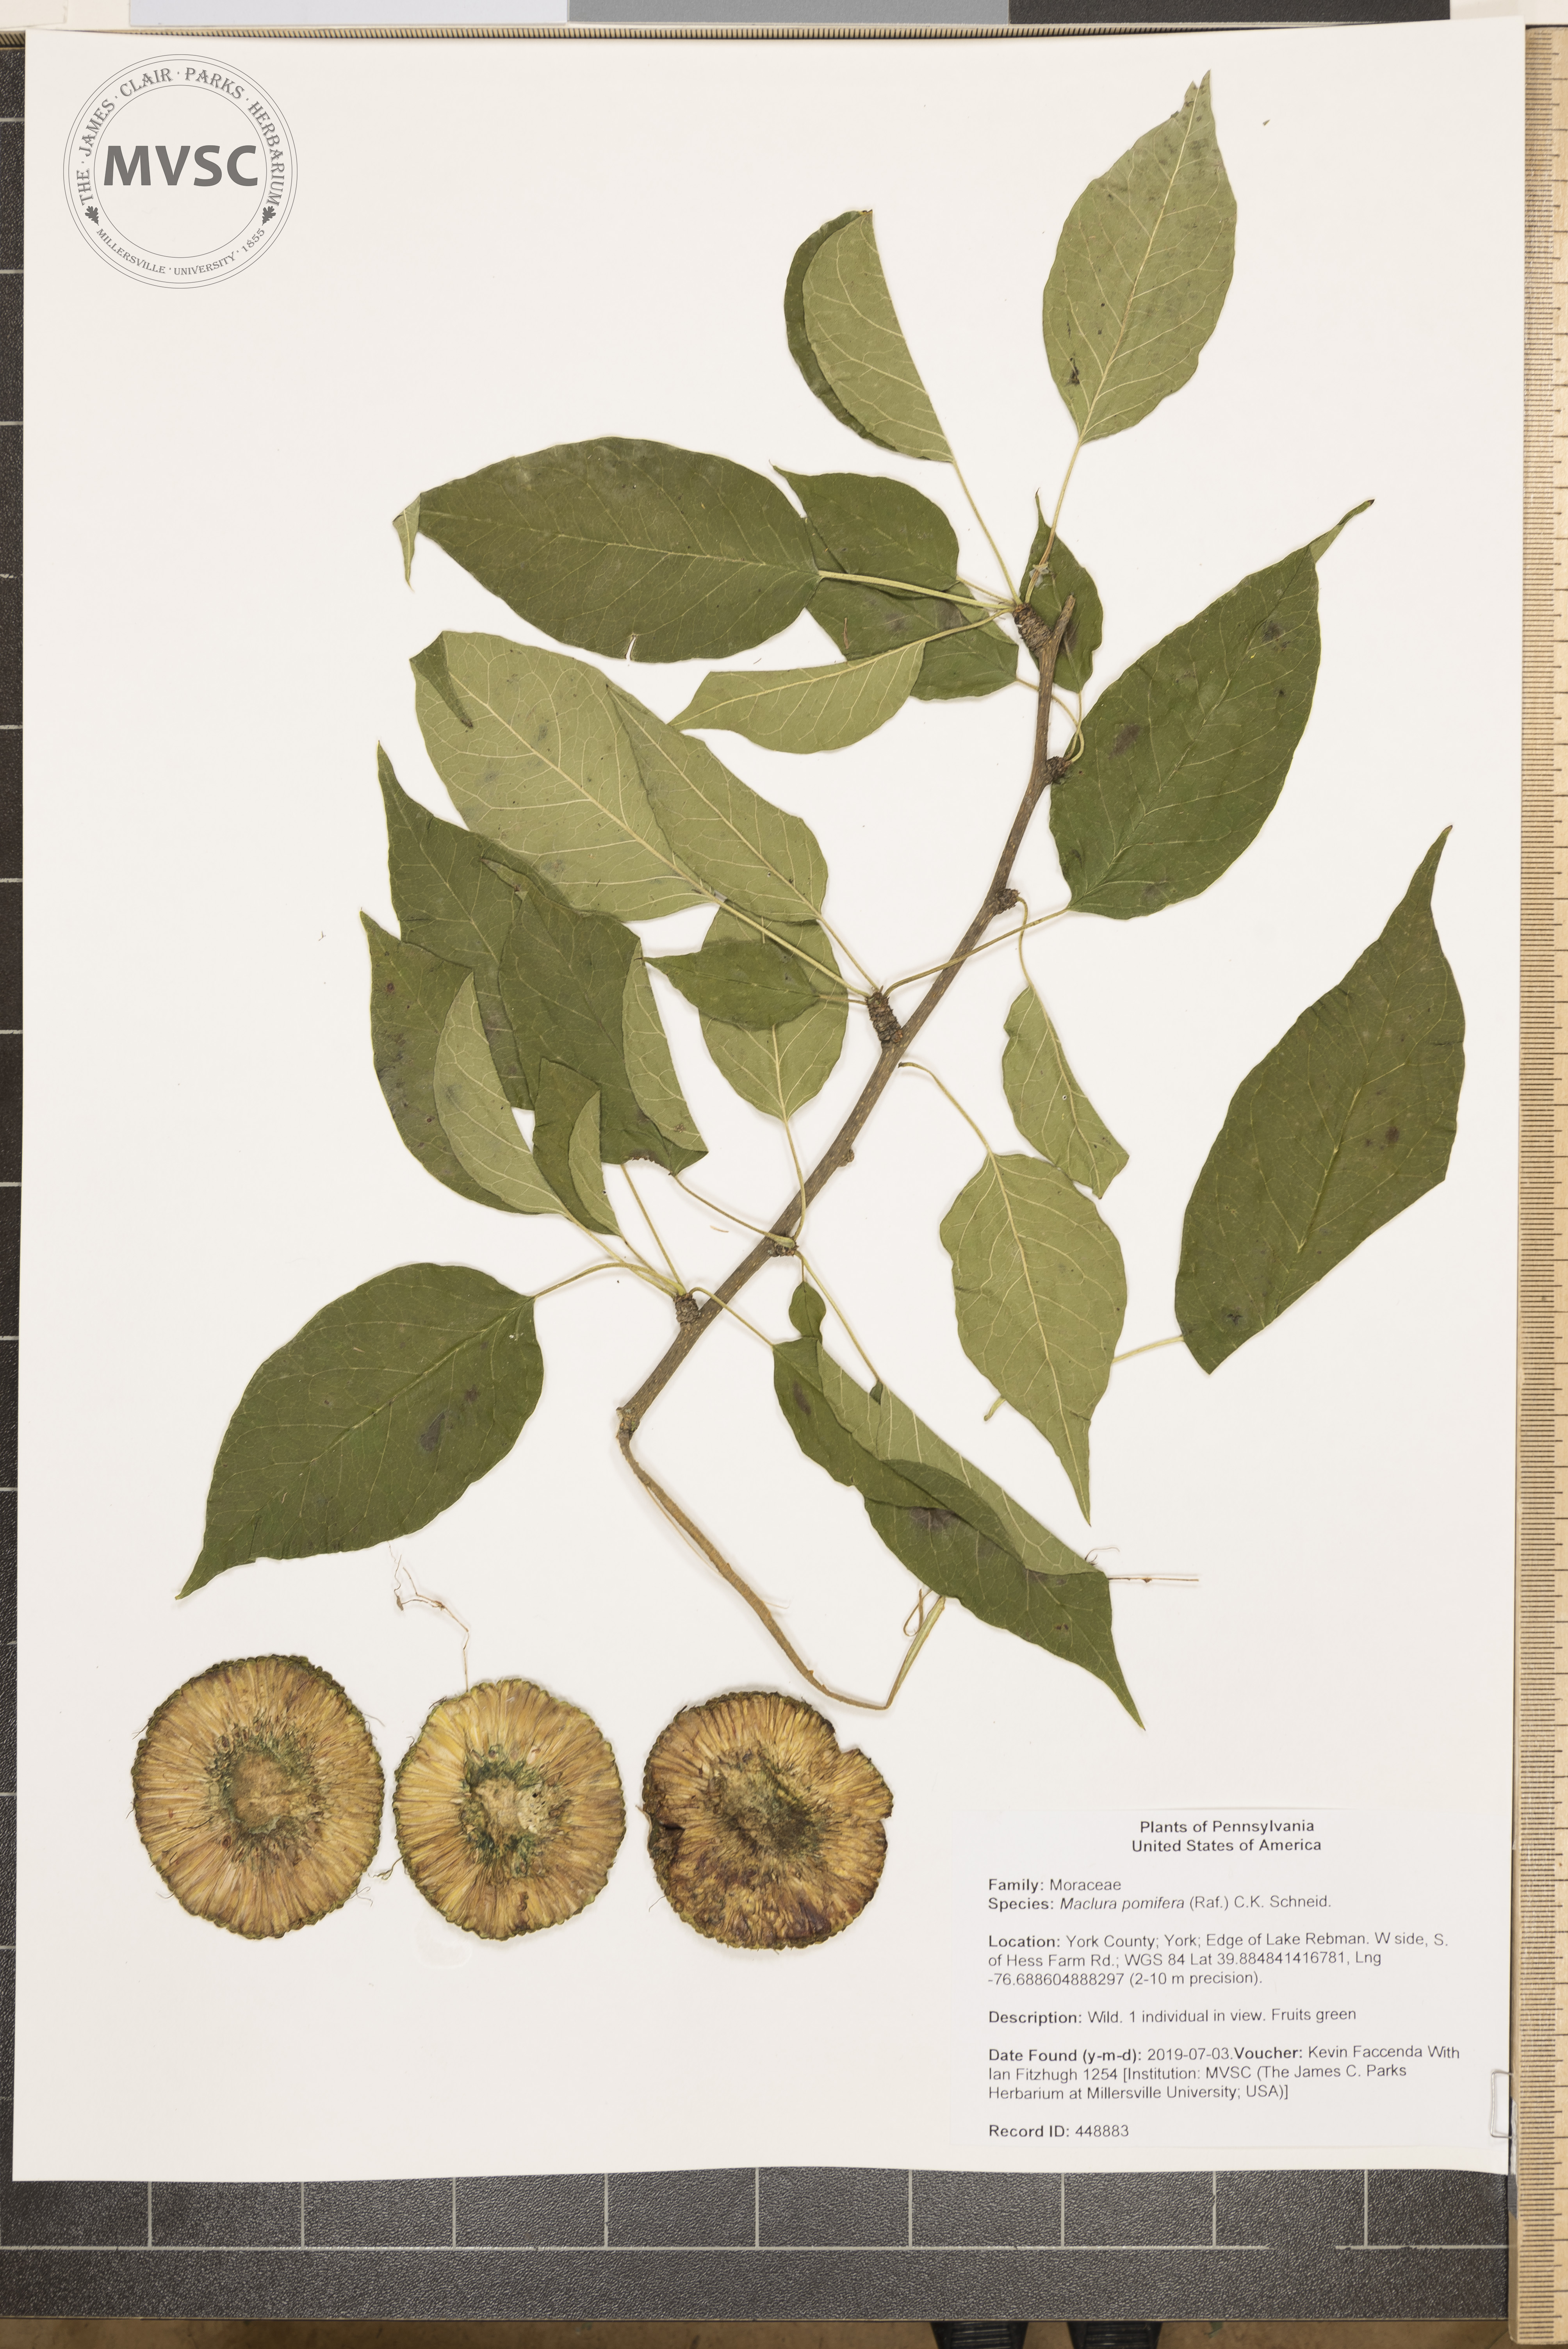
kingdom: Plantae
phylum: Tracheophyta
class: Magnoliopsida
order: Rosales
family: Moraceae
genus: Maclura
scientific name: Maclura pomifera
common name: Osage-orange
